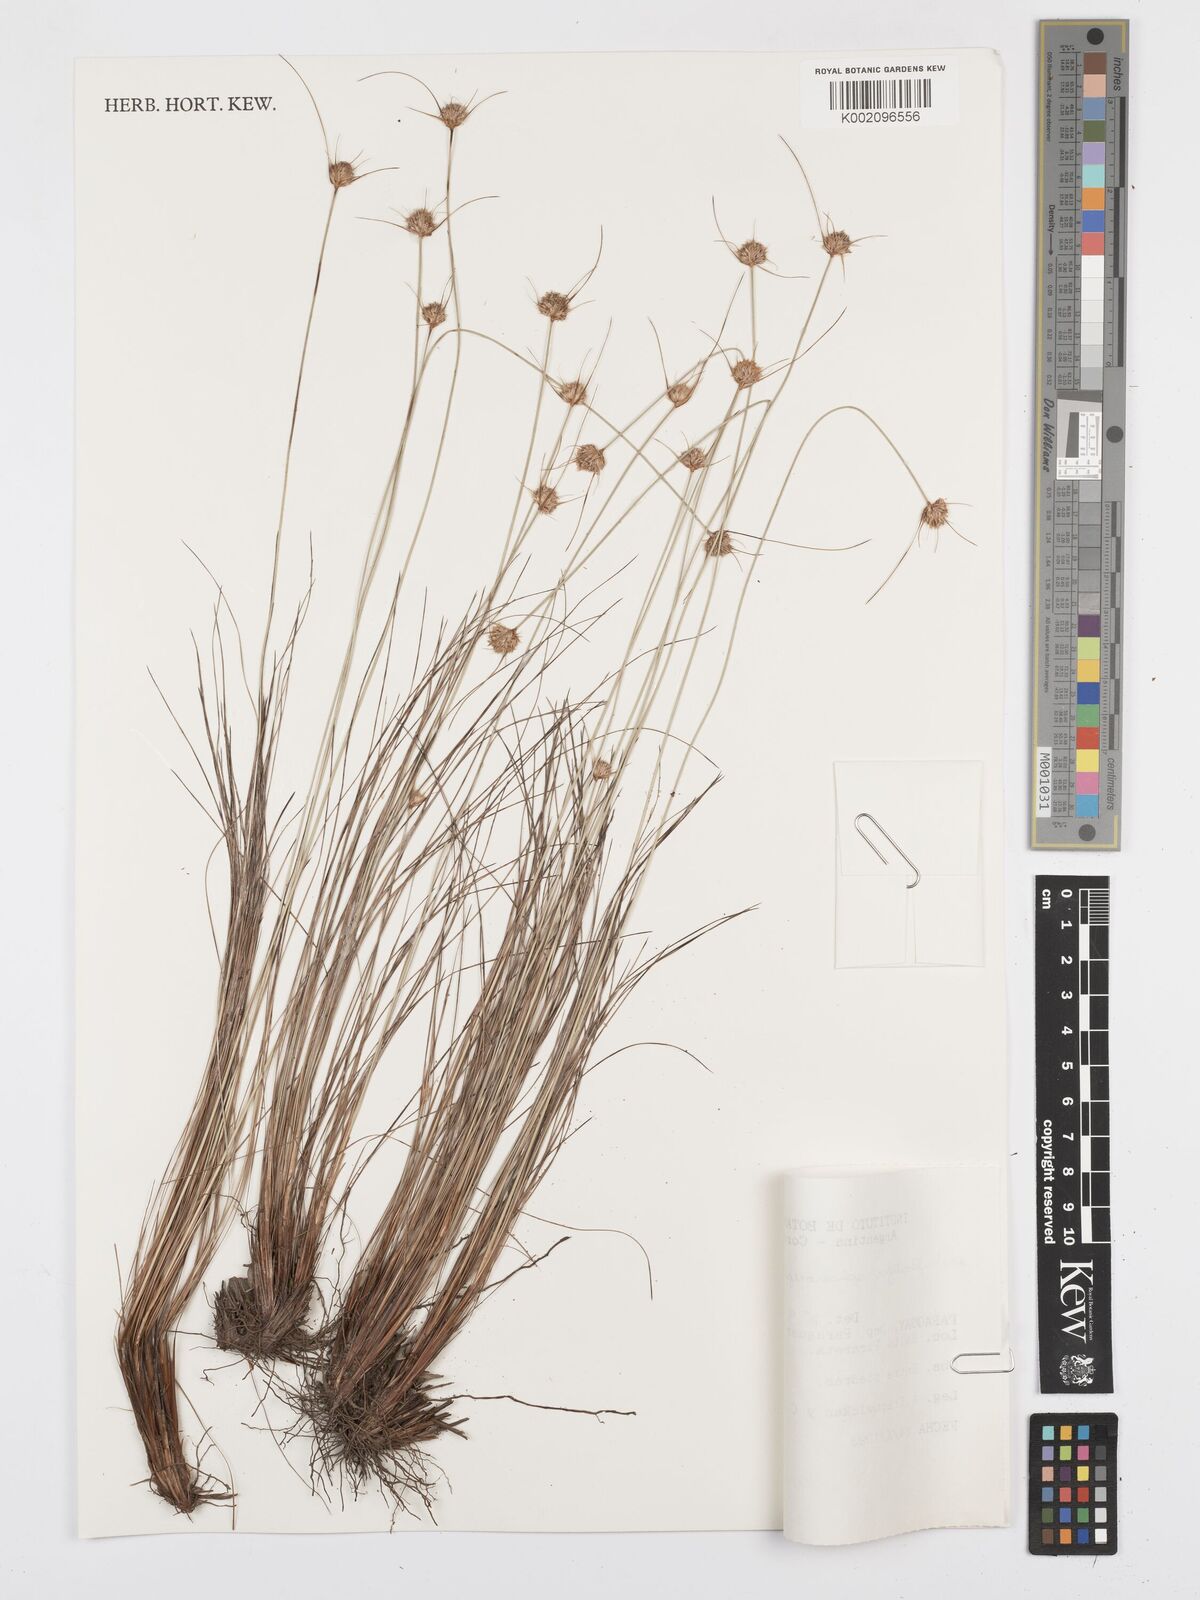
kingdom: Plantae
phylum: Tracheophyta
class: Liliopsida
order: Poales
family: Cyperaceae
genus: Bulbostylis
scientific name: Bulbostylis sphaerocephala
